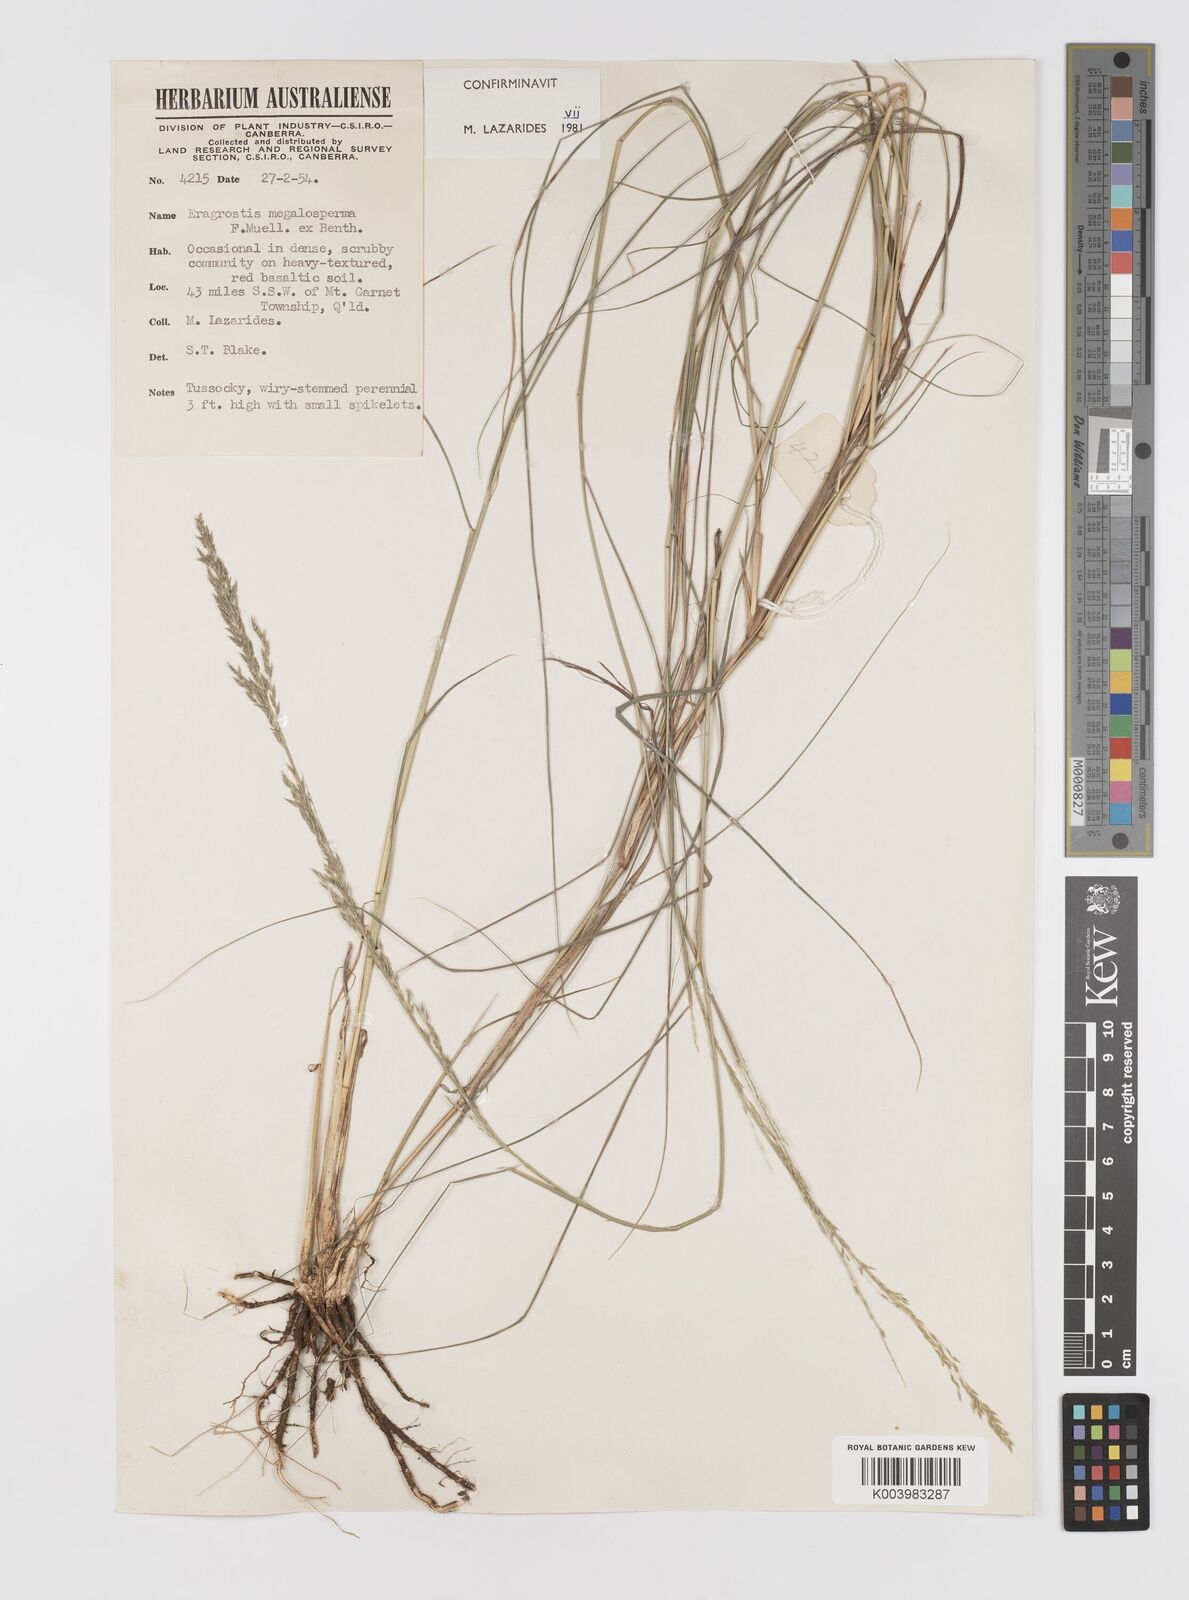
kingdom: Plantae
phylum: Tracheophyta
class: Liliopsida
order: Poales
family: Poaceae
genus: Sporobolus
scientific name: Sporobolus megalospermus
